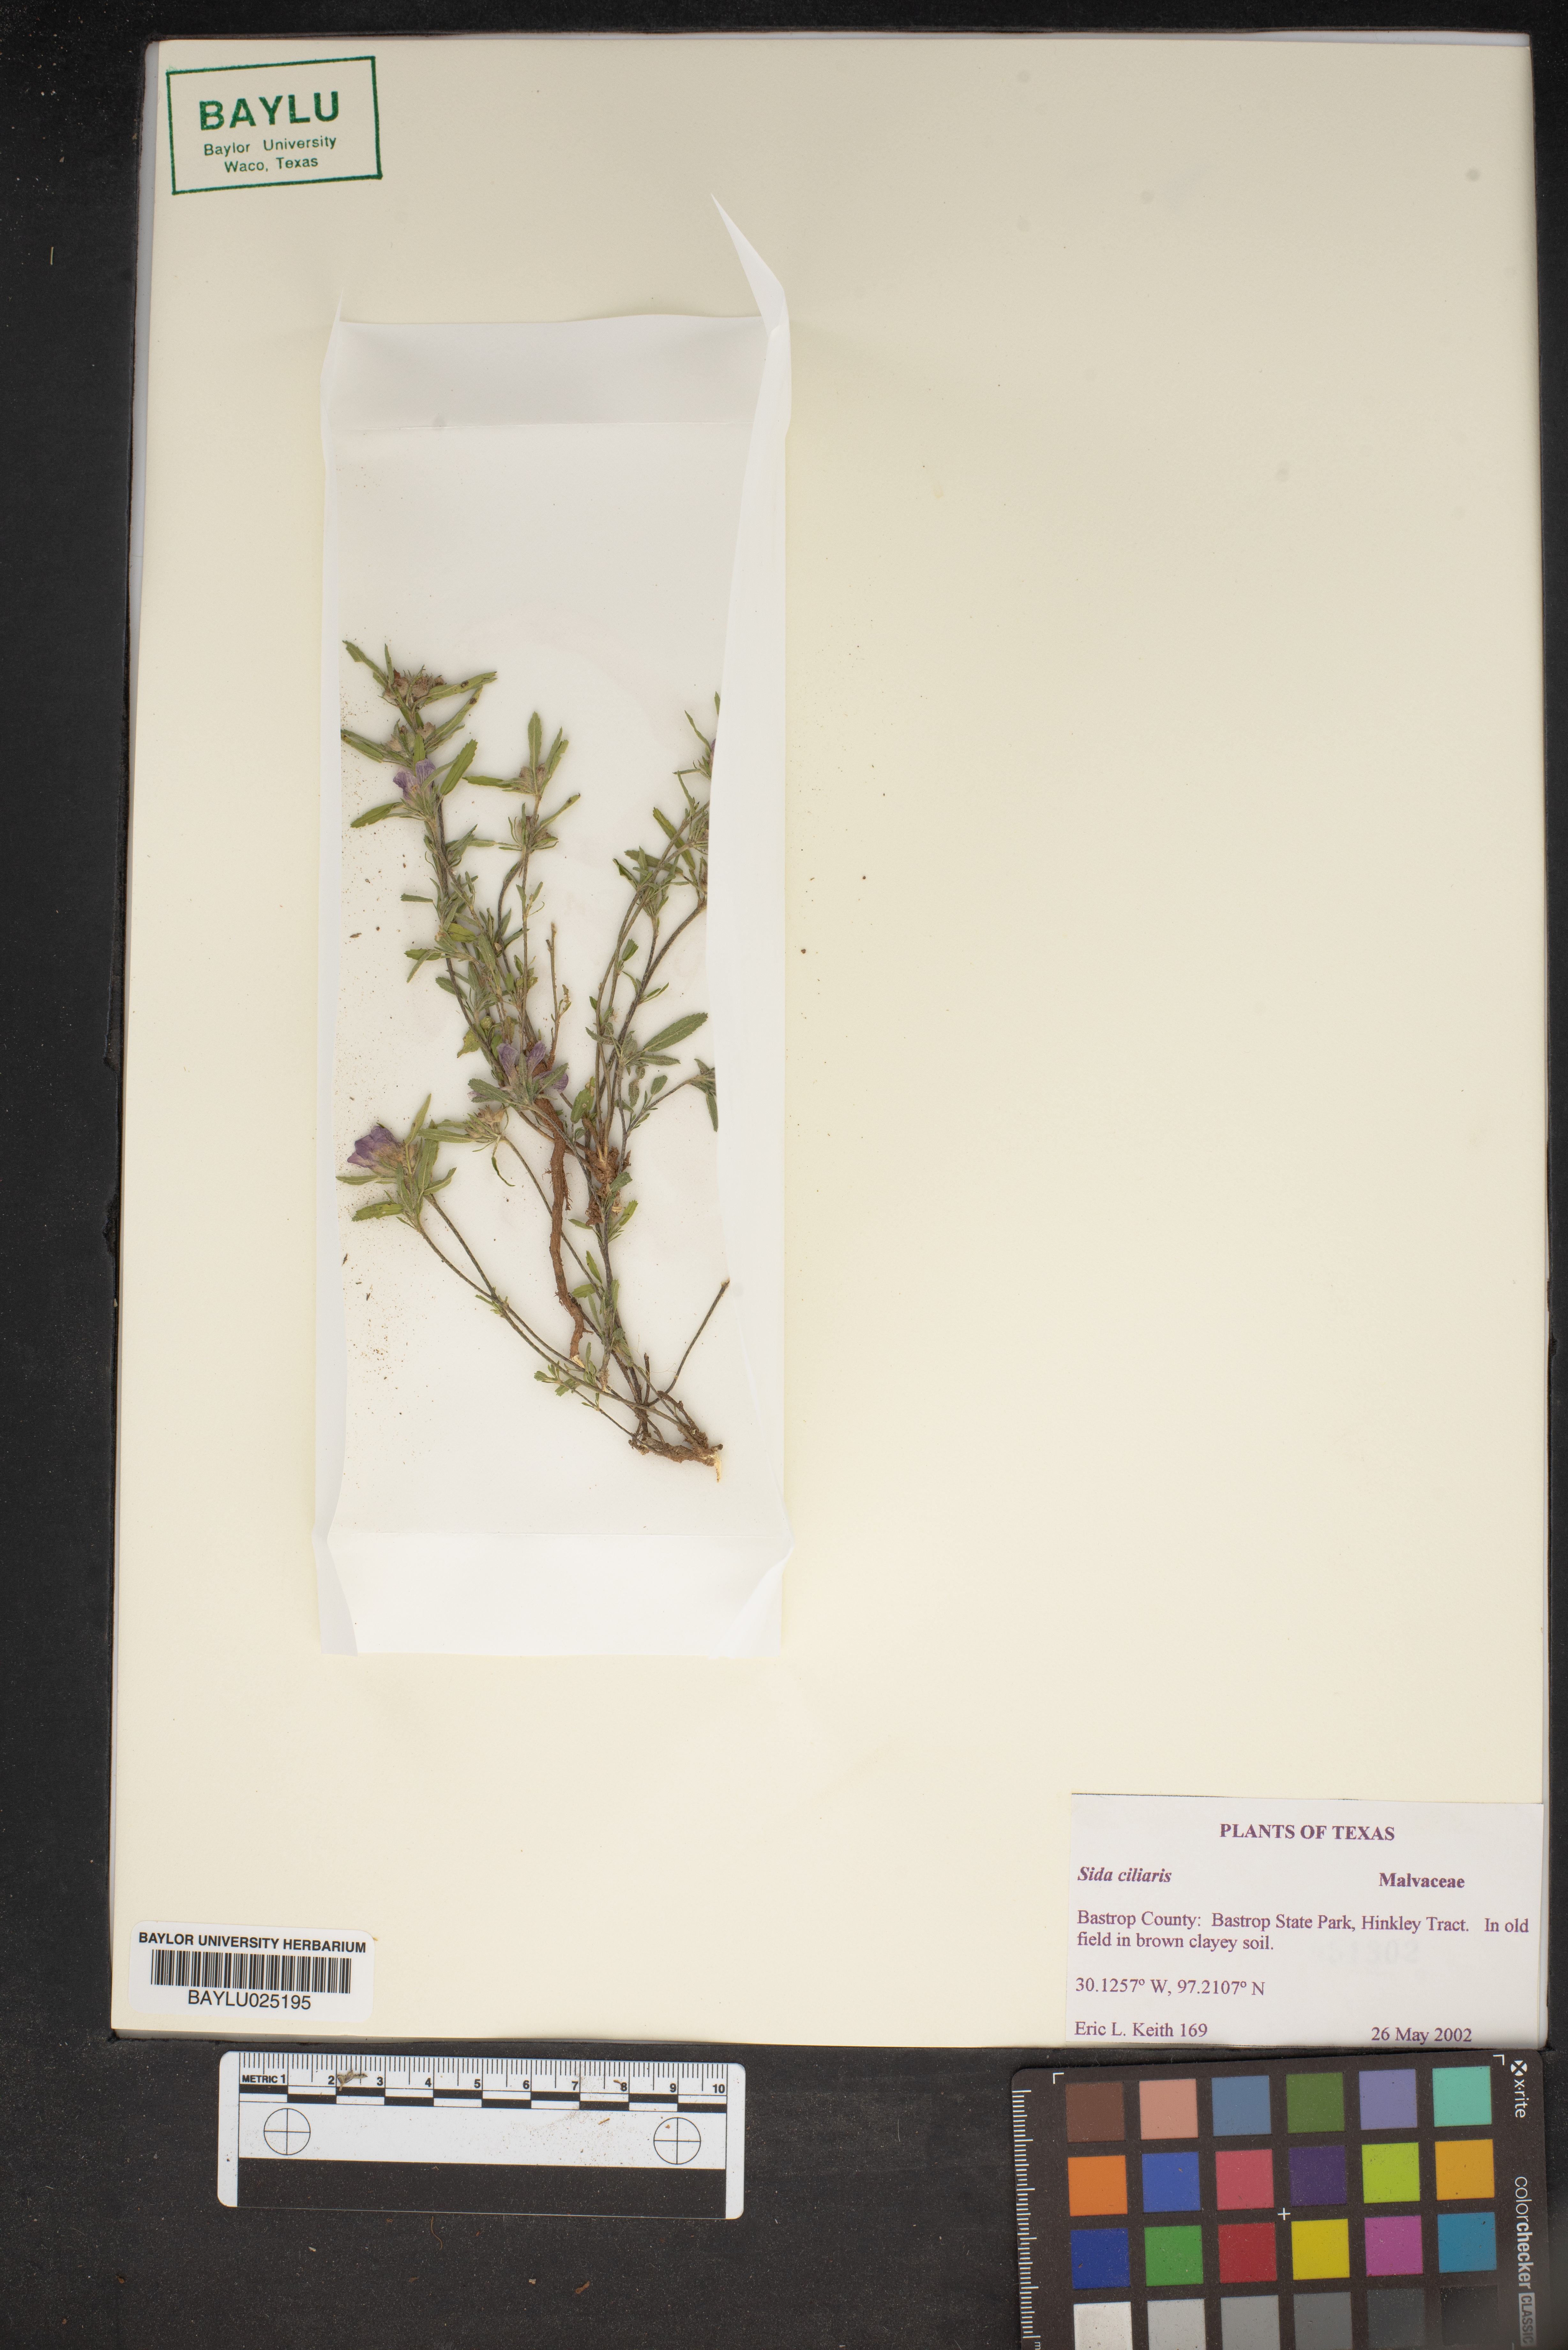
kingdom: Plantae
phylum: Tracheophyta
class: Magnoliopsida
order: Malvales
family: Malvaceae
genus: Sida
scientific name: Sida ciliaris
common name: Bracted fanpetals
